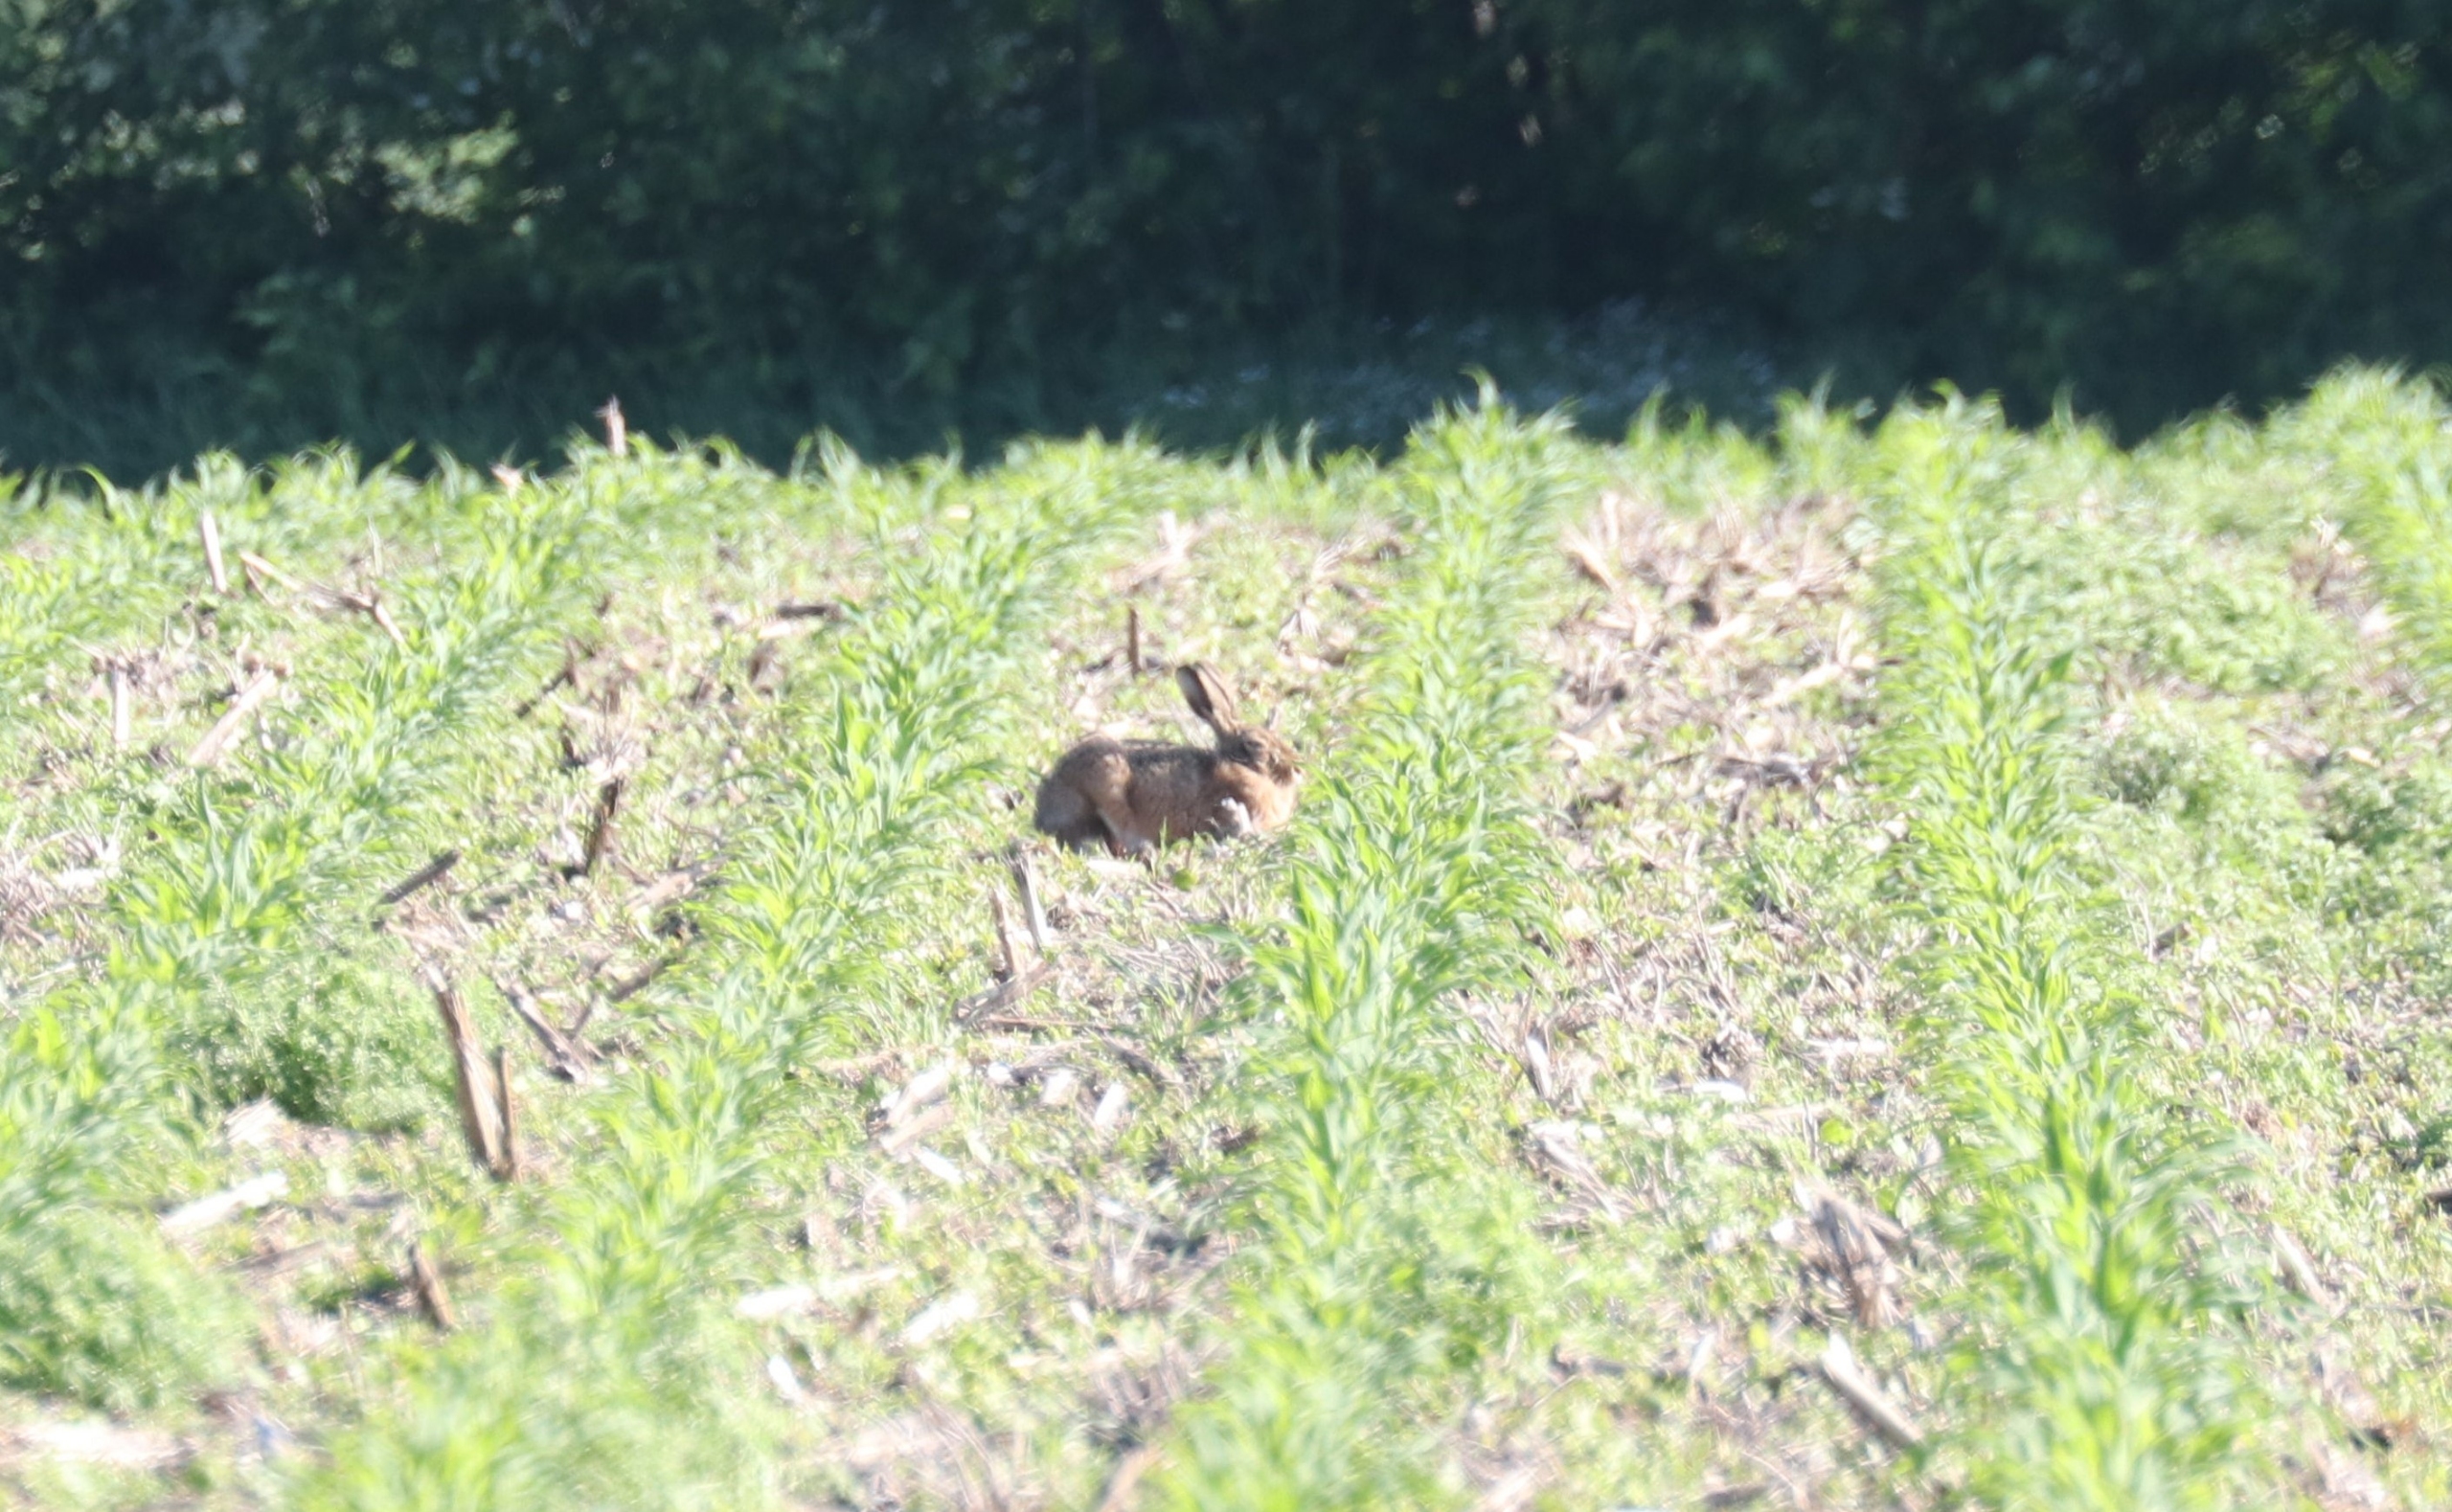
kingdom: Animalia
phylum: Chordata
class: Mammalia
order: Lagomorpha
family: Leporidae
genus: Lepus
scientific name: Lepus europaeus
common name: Hare
